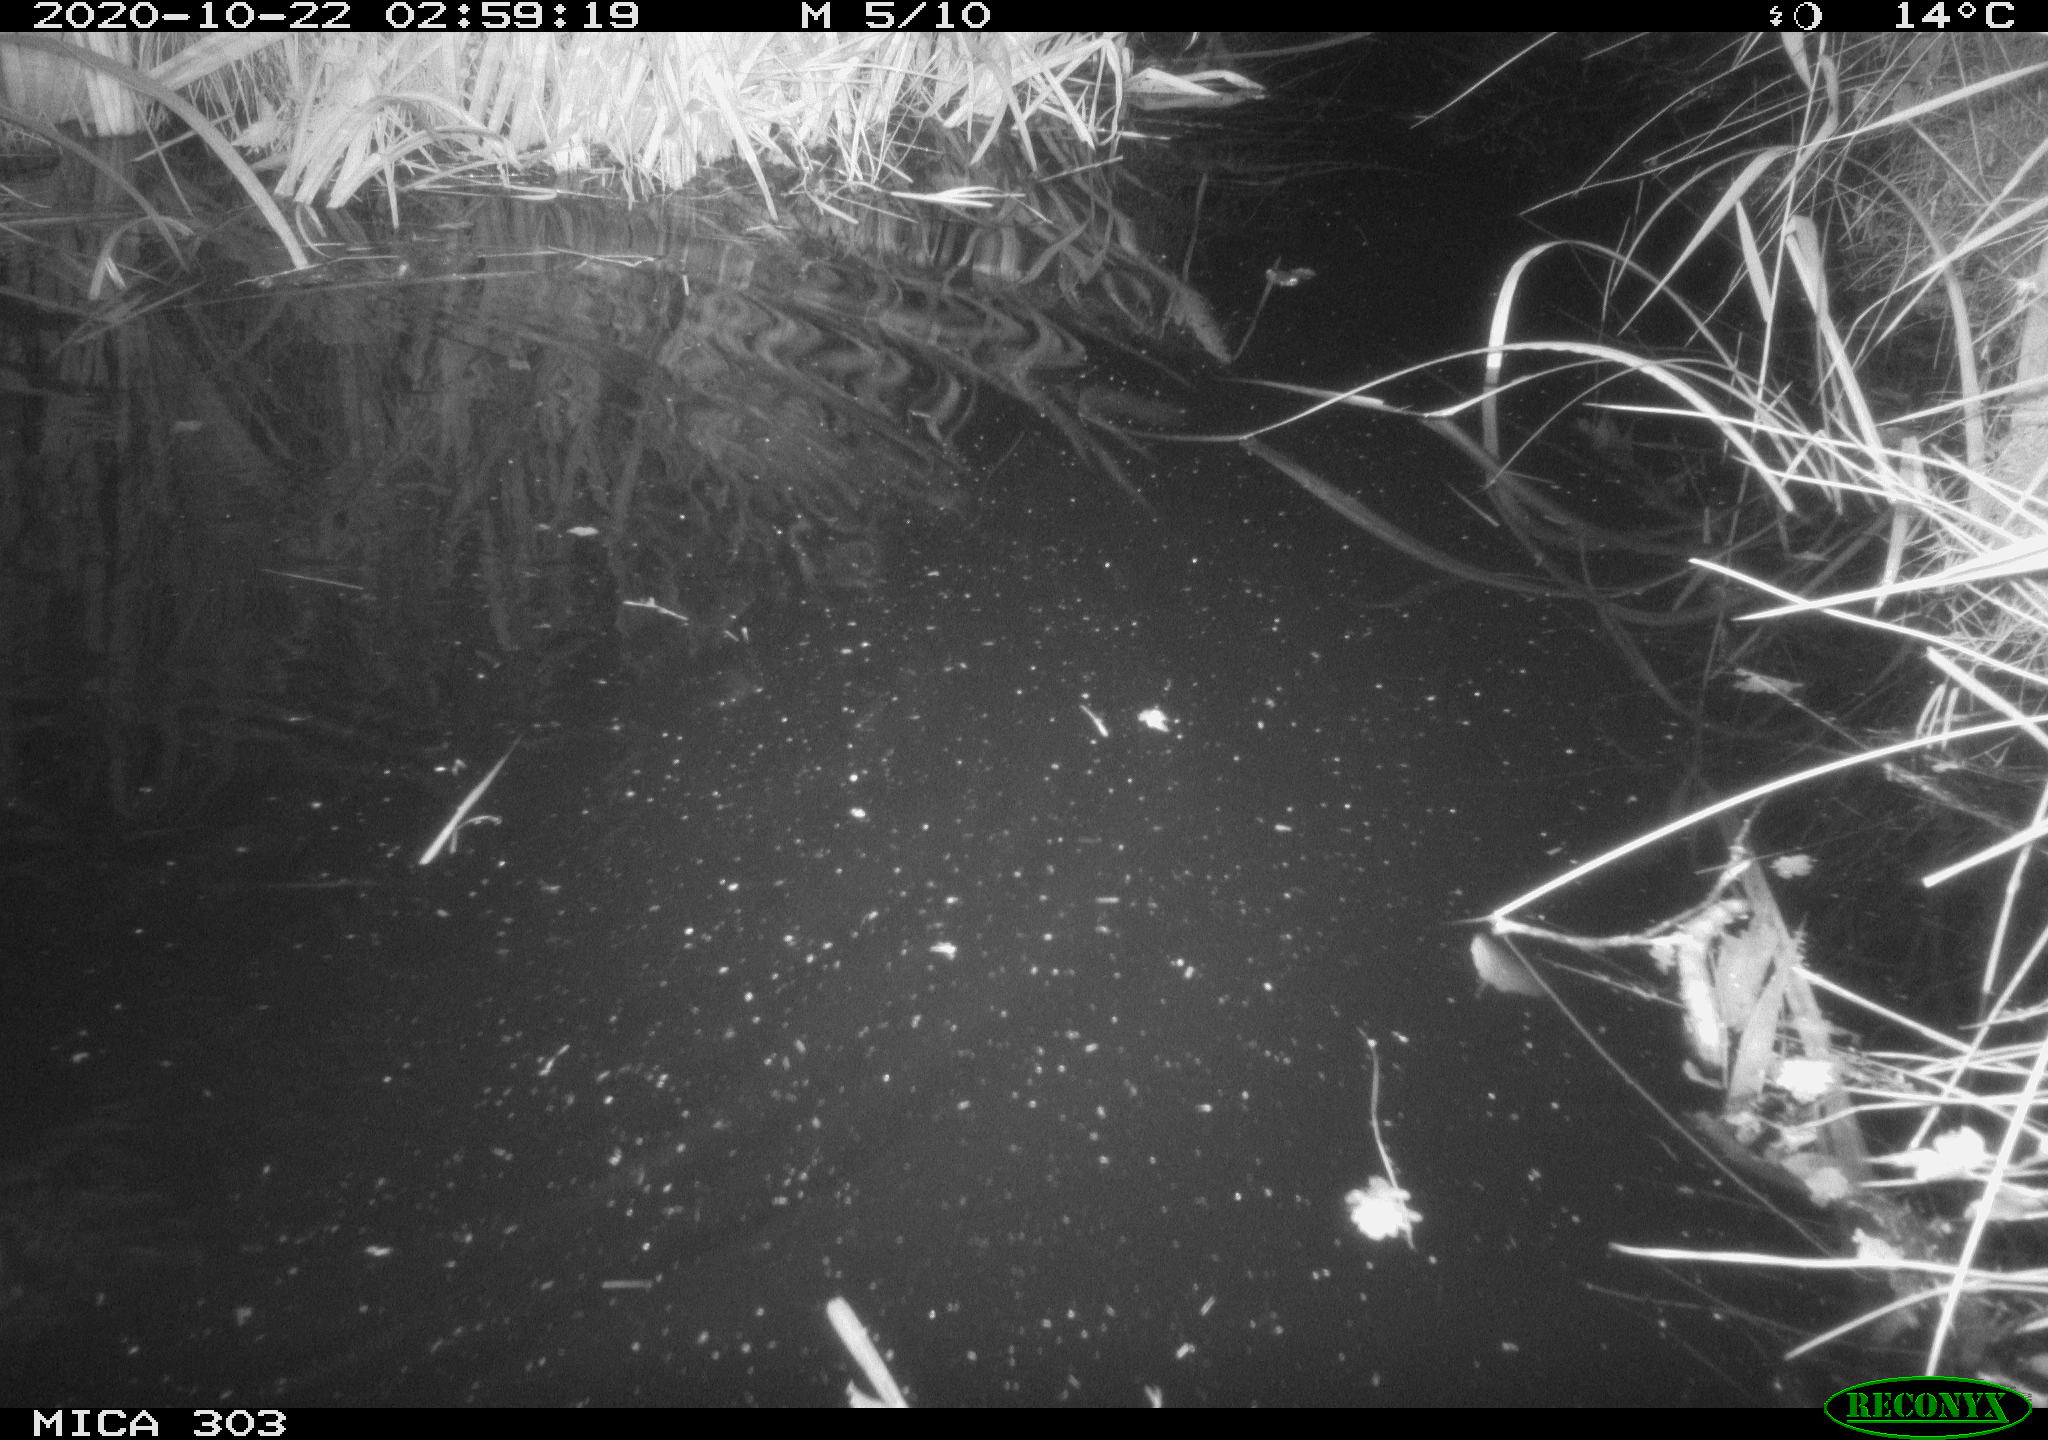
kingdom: Animalia
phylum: Chordata
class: Mammalia
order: Rodentia
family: Castoridae
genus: Castor
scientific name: Castor fiber
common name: Eurasian beaver
